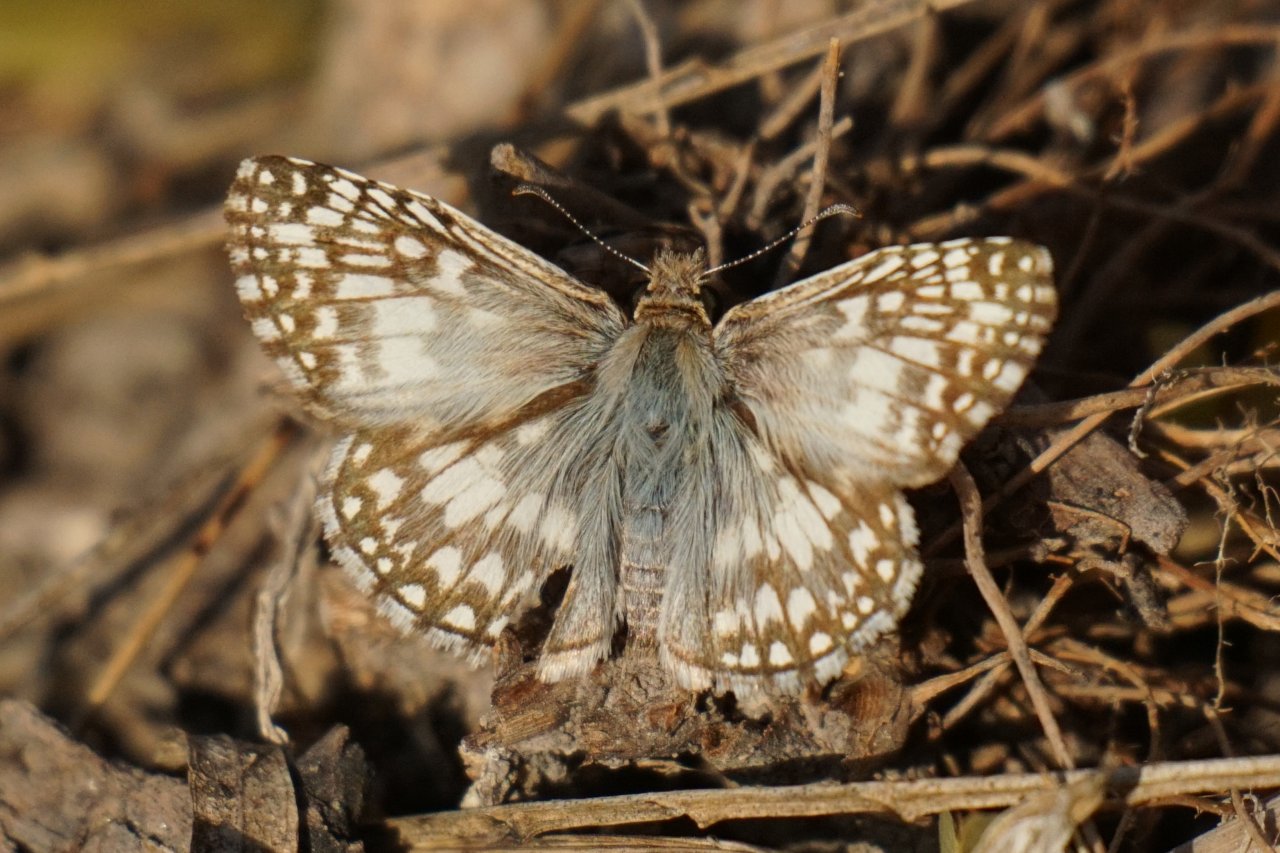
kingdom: Animalia
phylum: Arthropoda
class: Insecta
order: Lepidoptera
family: Hesperiidae
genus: Pyrgus
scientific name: Pyrgus oileus
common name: Tropical Checkered-Skipper
